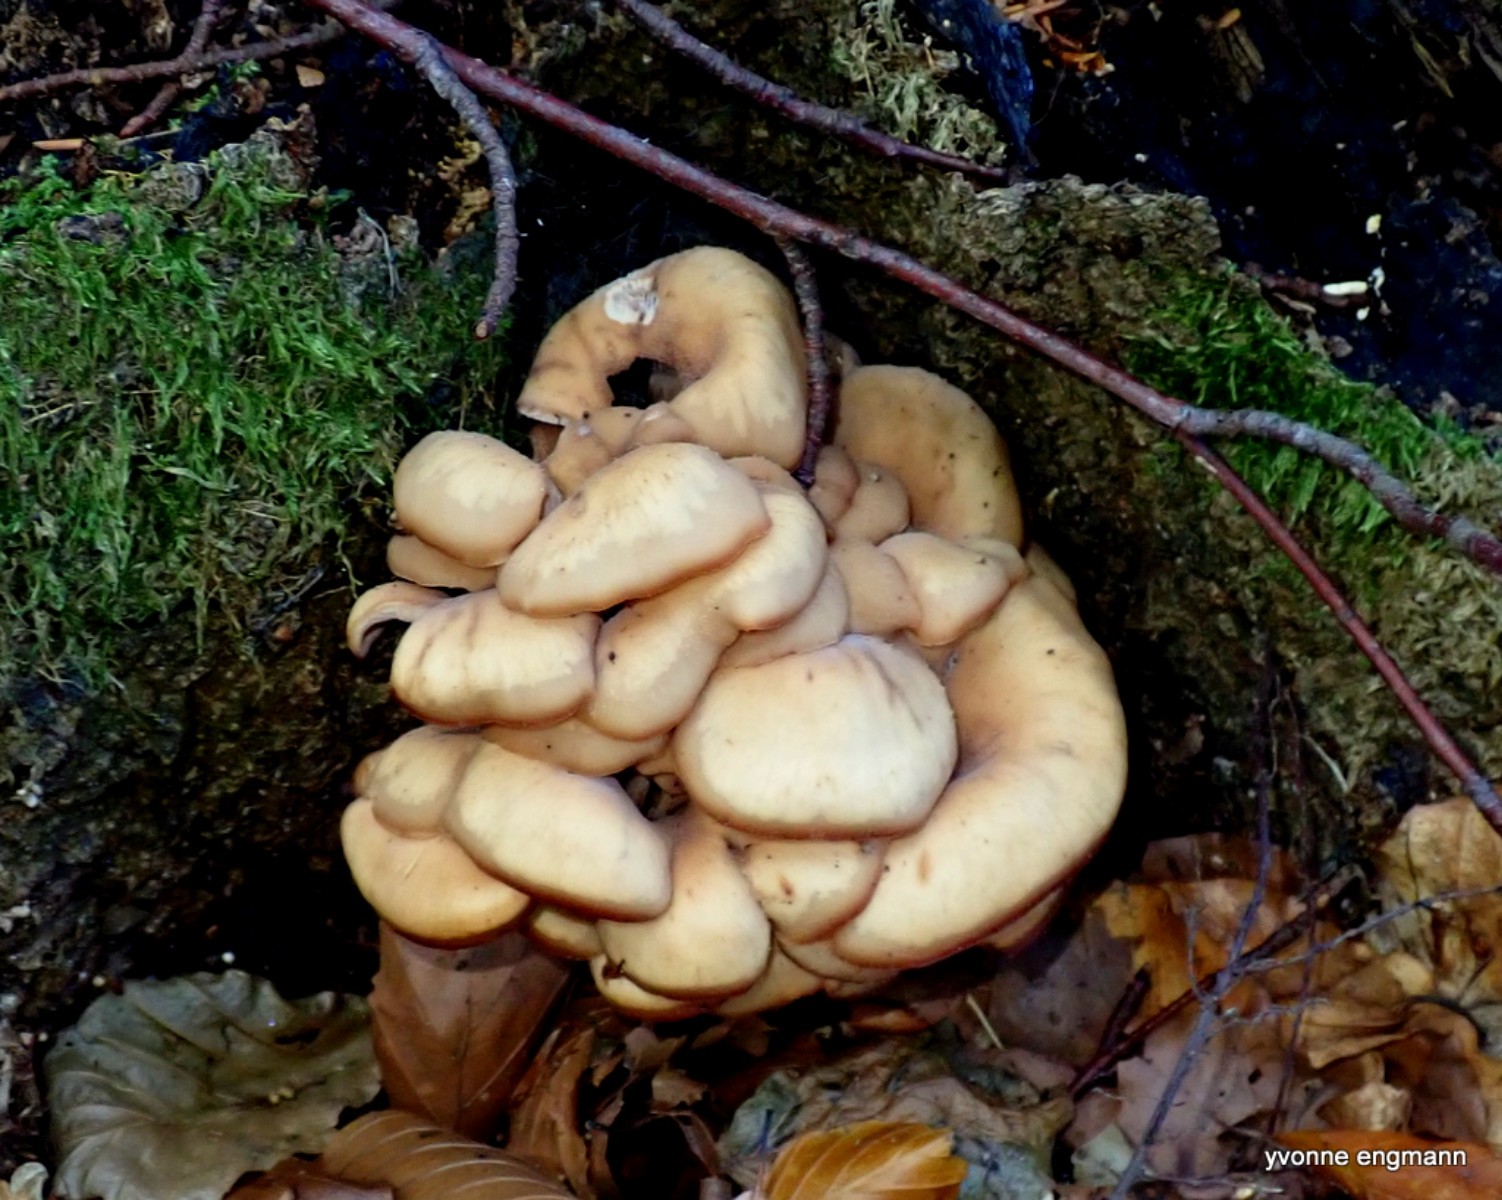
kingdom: Fungi
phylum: Basidiomycota
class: Agaricomycetes
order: Russulales
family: Auriscalpiaceae
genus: Lentinellus
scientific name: Lentinellus cochleatus
